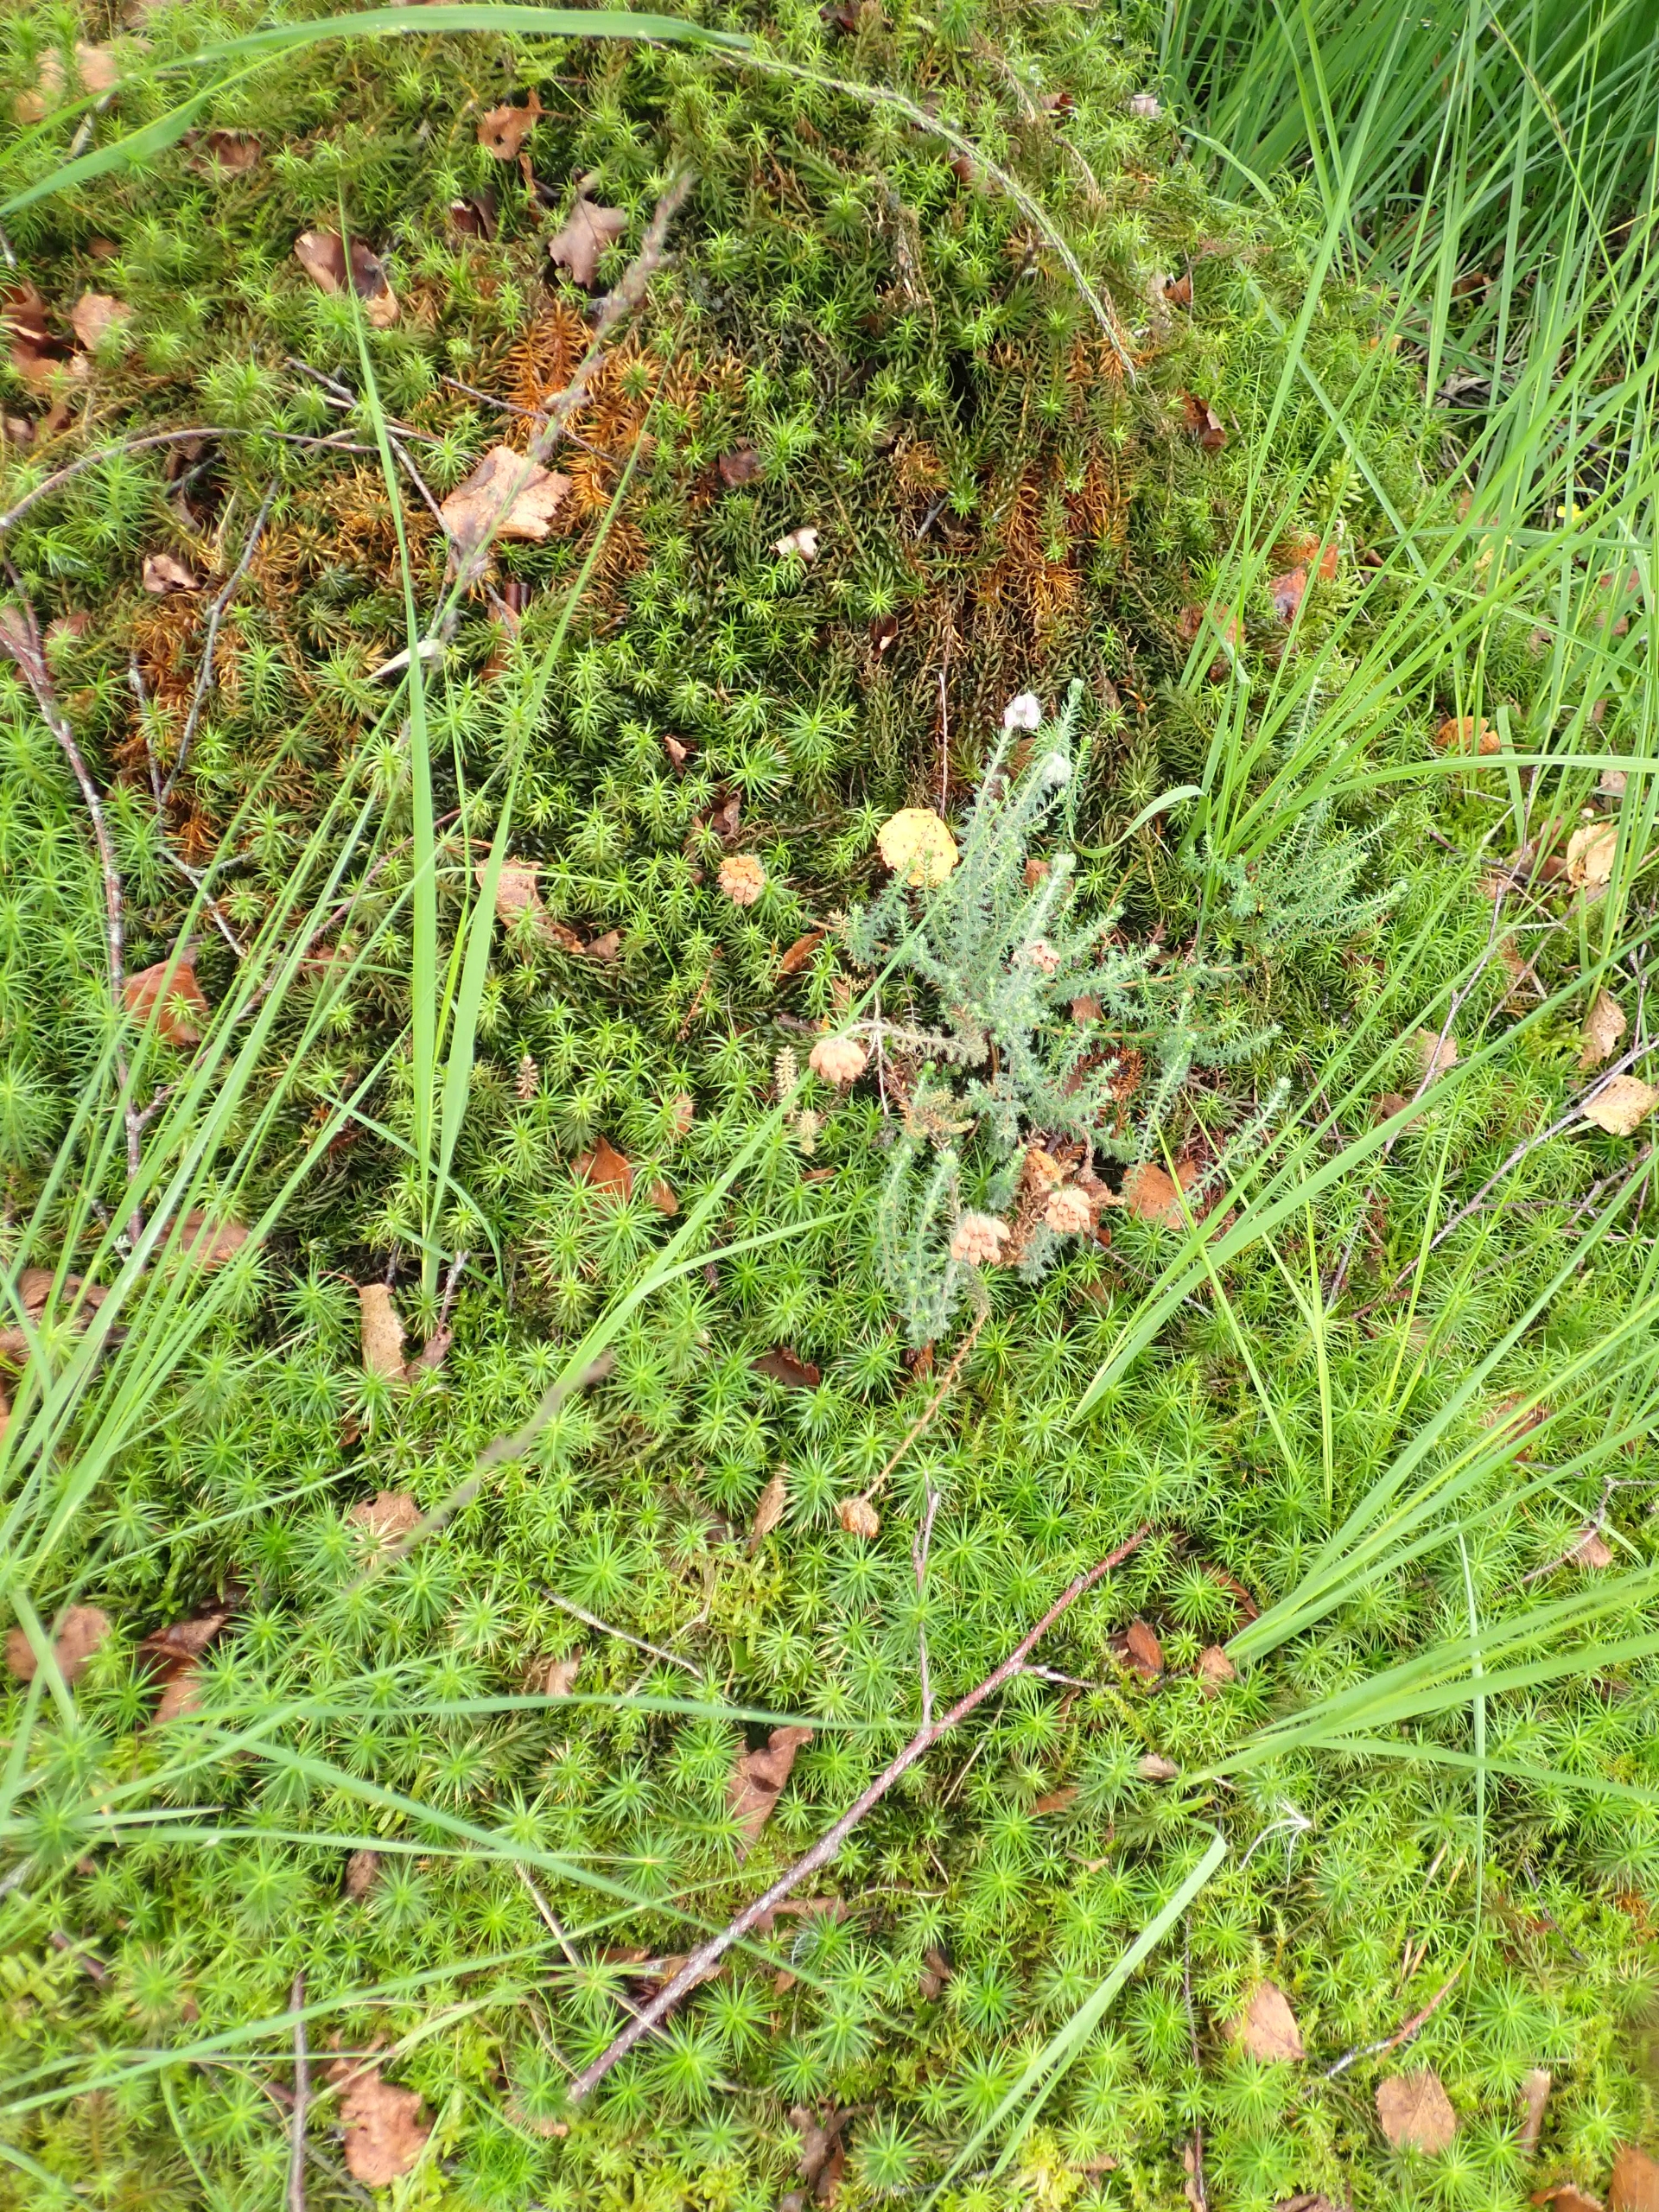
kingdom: Plantae
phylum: Tracheophyta
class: Magnoliopsida
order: Ericales
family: Ericaceae
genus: Erica
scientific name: Erica tetralix
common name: Klokkelyng
